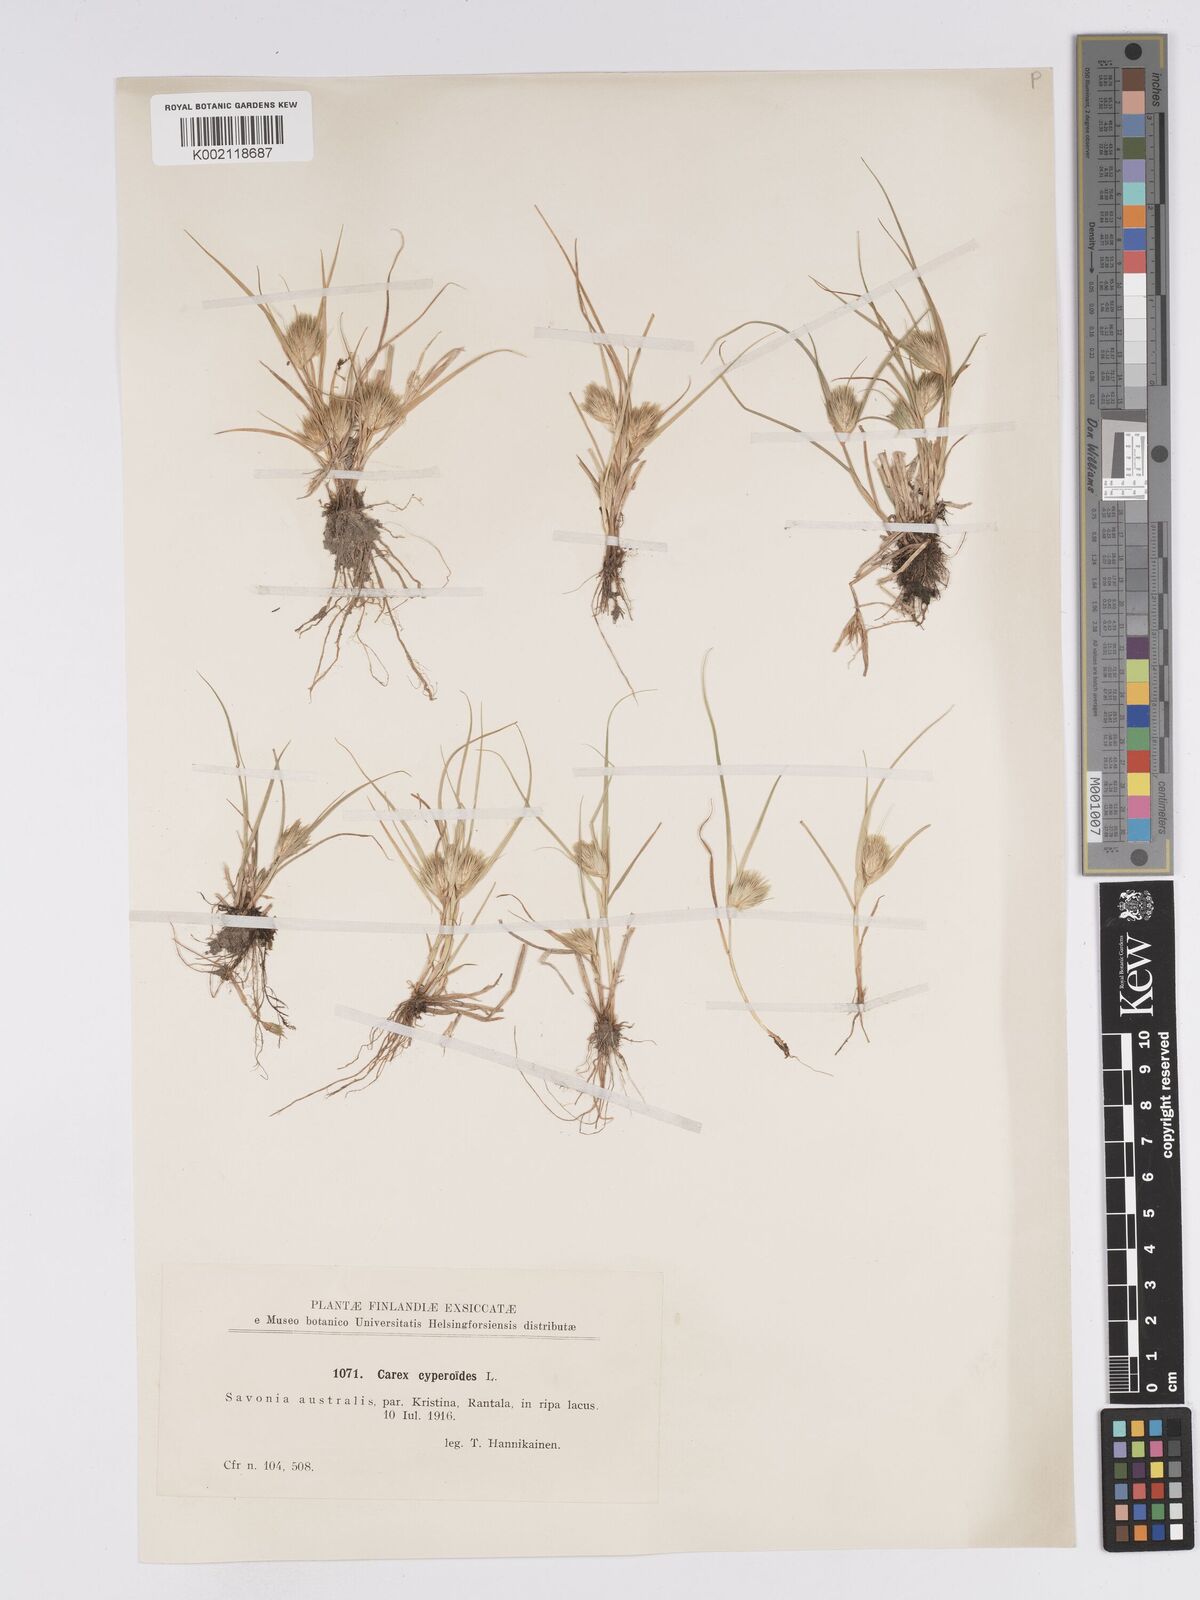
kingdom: Plantae
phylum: Tracheophyta
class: Liliopsida
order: Poales
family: Cyperaceae
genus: Carex
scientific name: Carex bohemica
